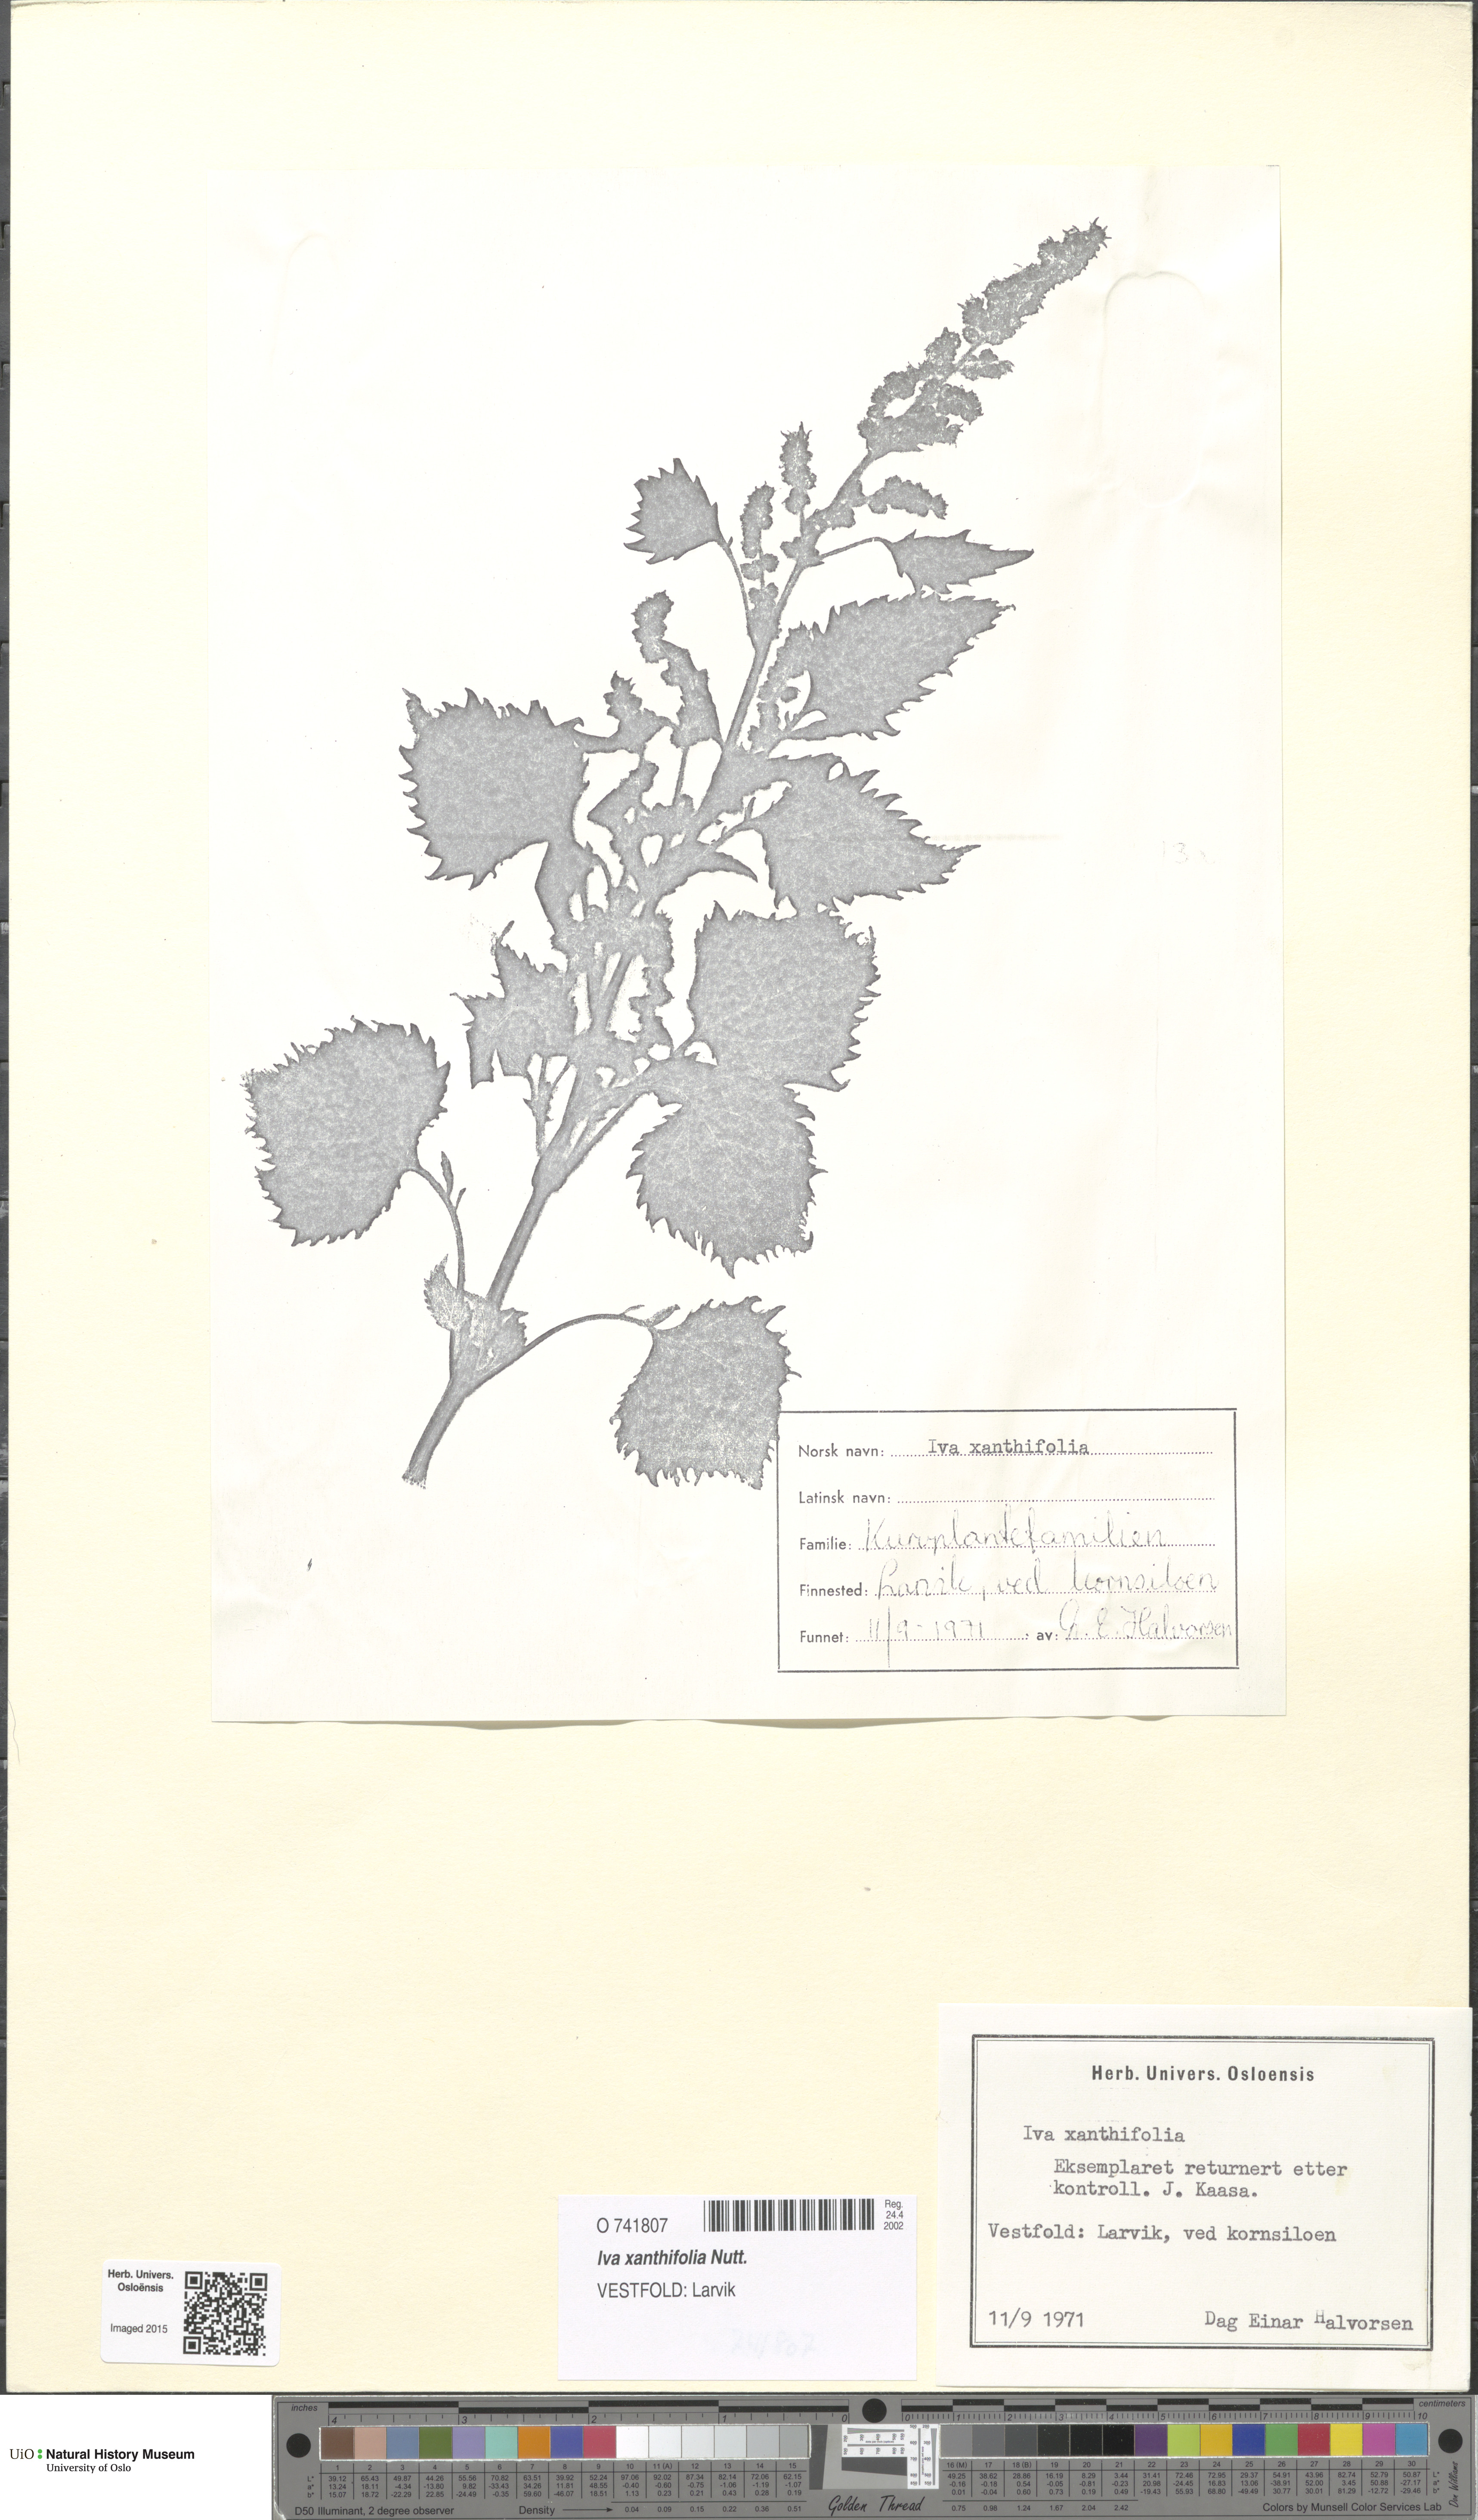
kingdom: Plantae
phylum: Tracheophyta
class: Magnoliopsida
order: Asterales
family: Asteraceae
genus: Cyclachaena
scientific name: Cyclachaena xanthiifolia
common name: Giant sumpweed
